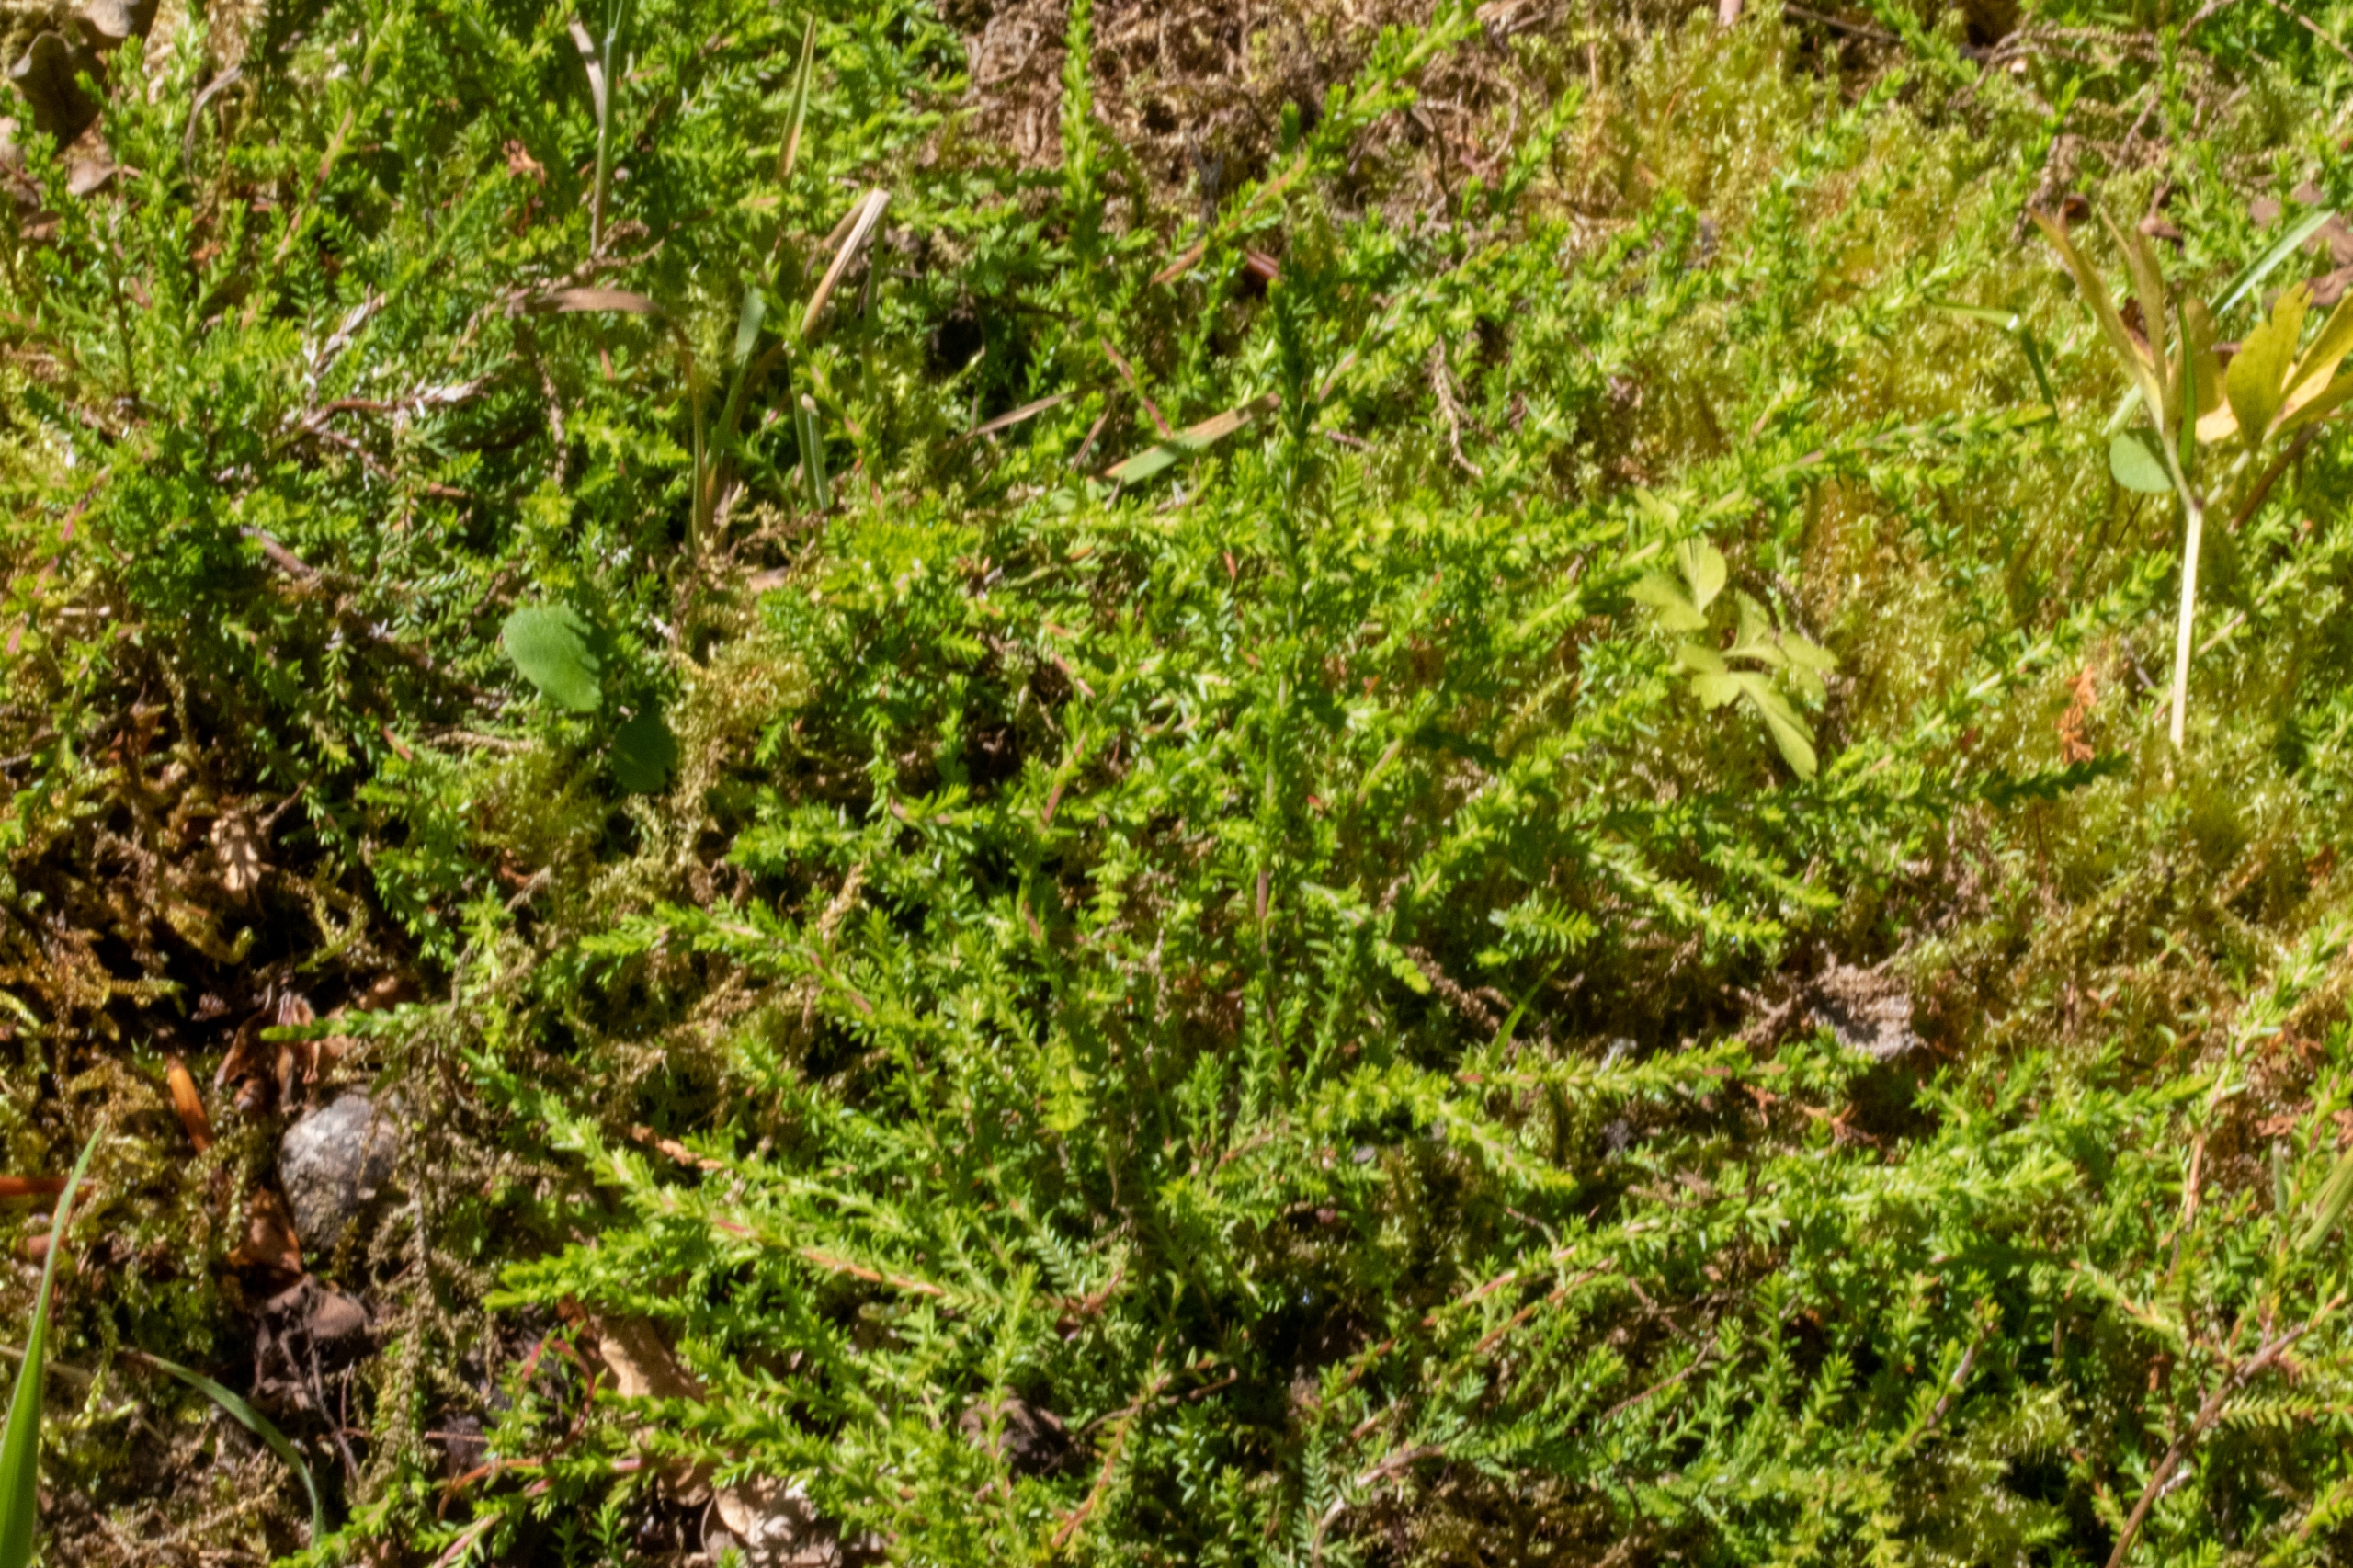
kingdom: Plantae
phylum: Tracheophyta
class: Magnoliopsida
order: Ericales
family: Ericaceae
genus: Calluna
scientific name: Calluna vulgaris
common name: Hedelyng
